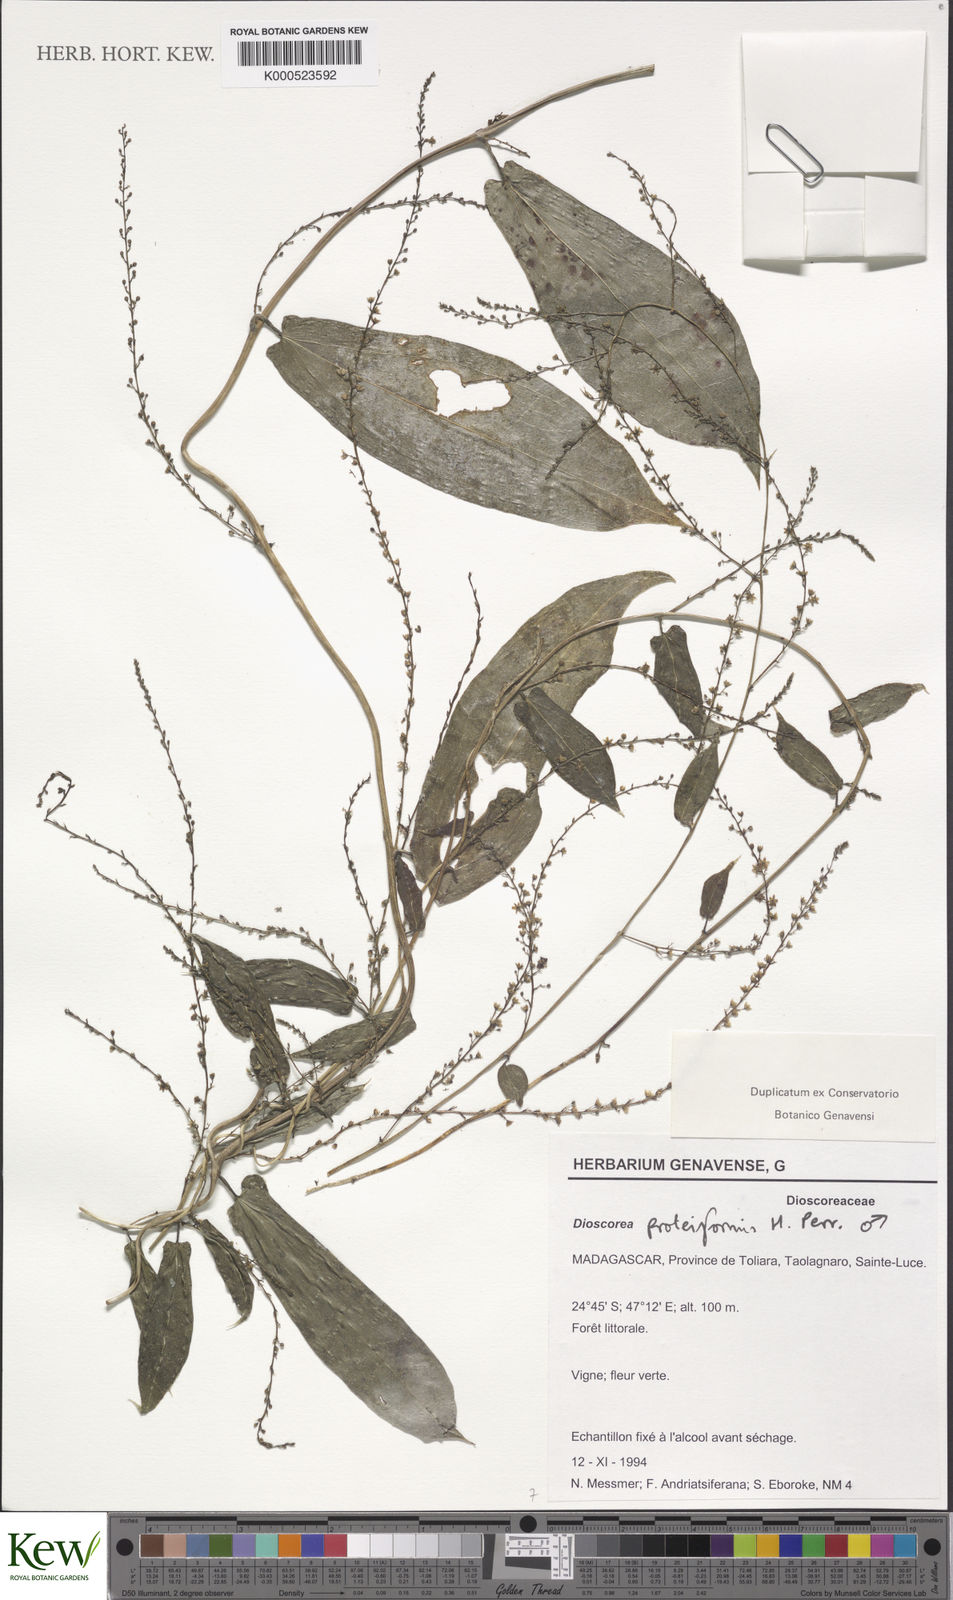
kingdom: Plantae
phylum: Tracheophyta
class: Liliopsida
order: Dioscoreales
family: Dioscoreaceae
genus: Dioscorea
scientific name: Dioscorea proteiformis
